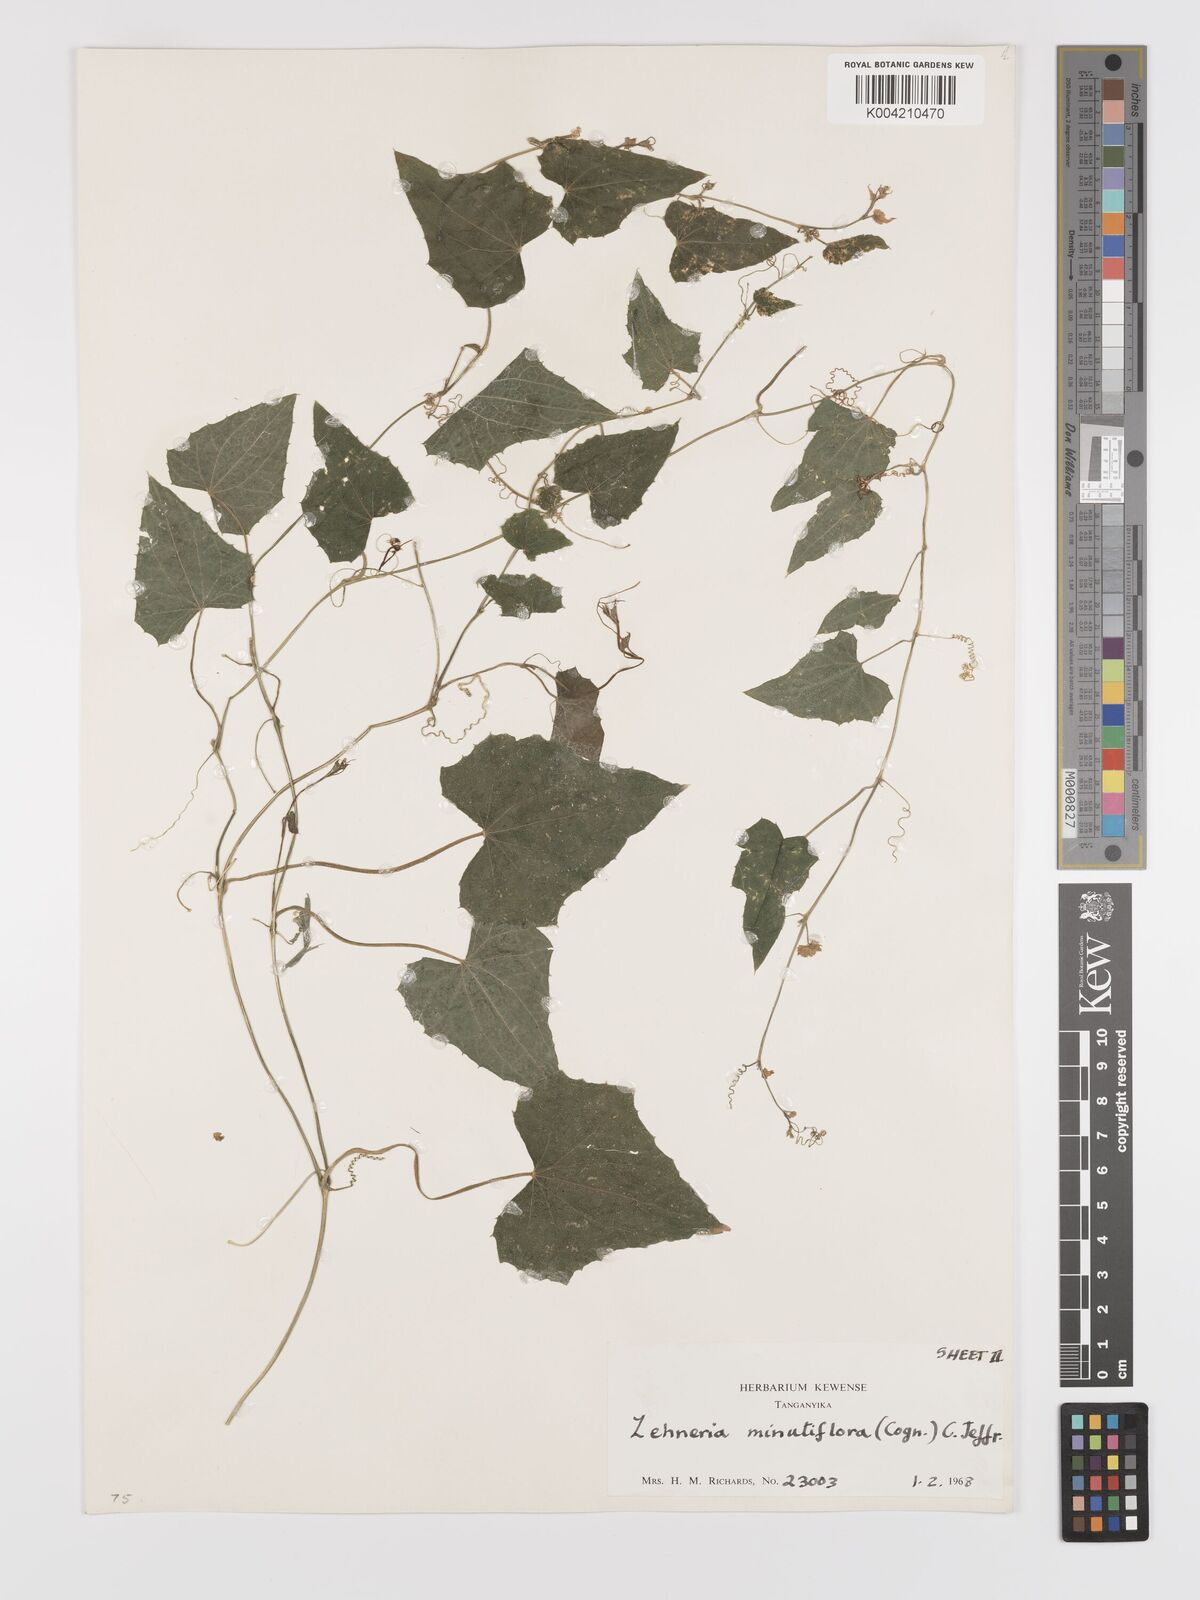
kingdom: Plantae
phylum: Tracheophyta
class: Magnoliopsida
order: Cucurbitales
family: Cucurbitaceae
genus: Zehneria
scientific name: Zehneria minutiflora
